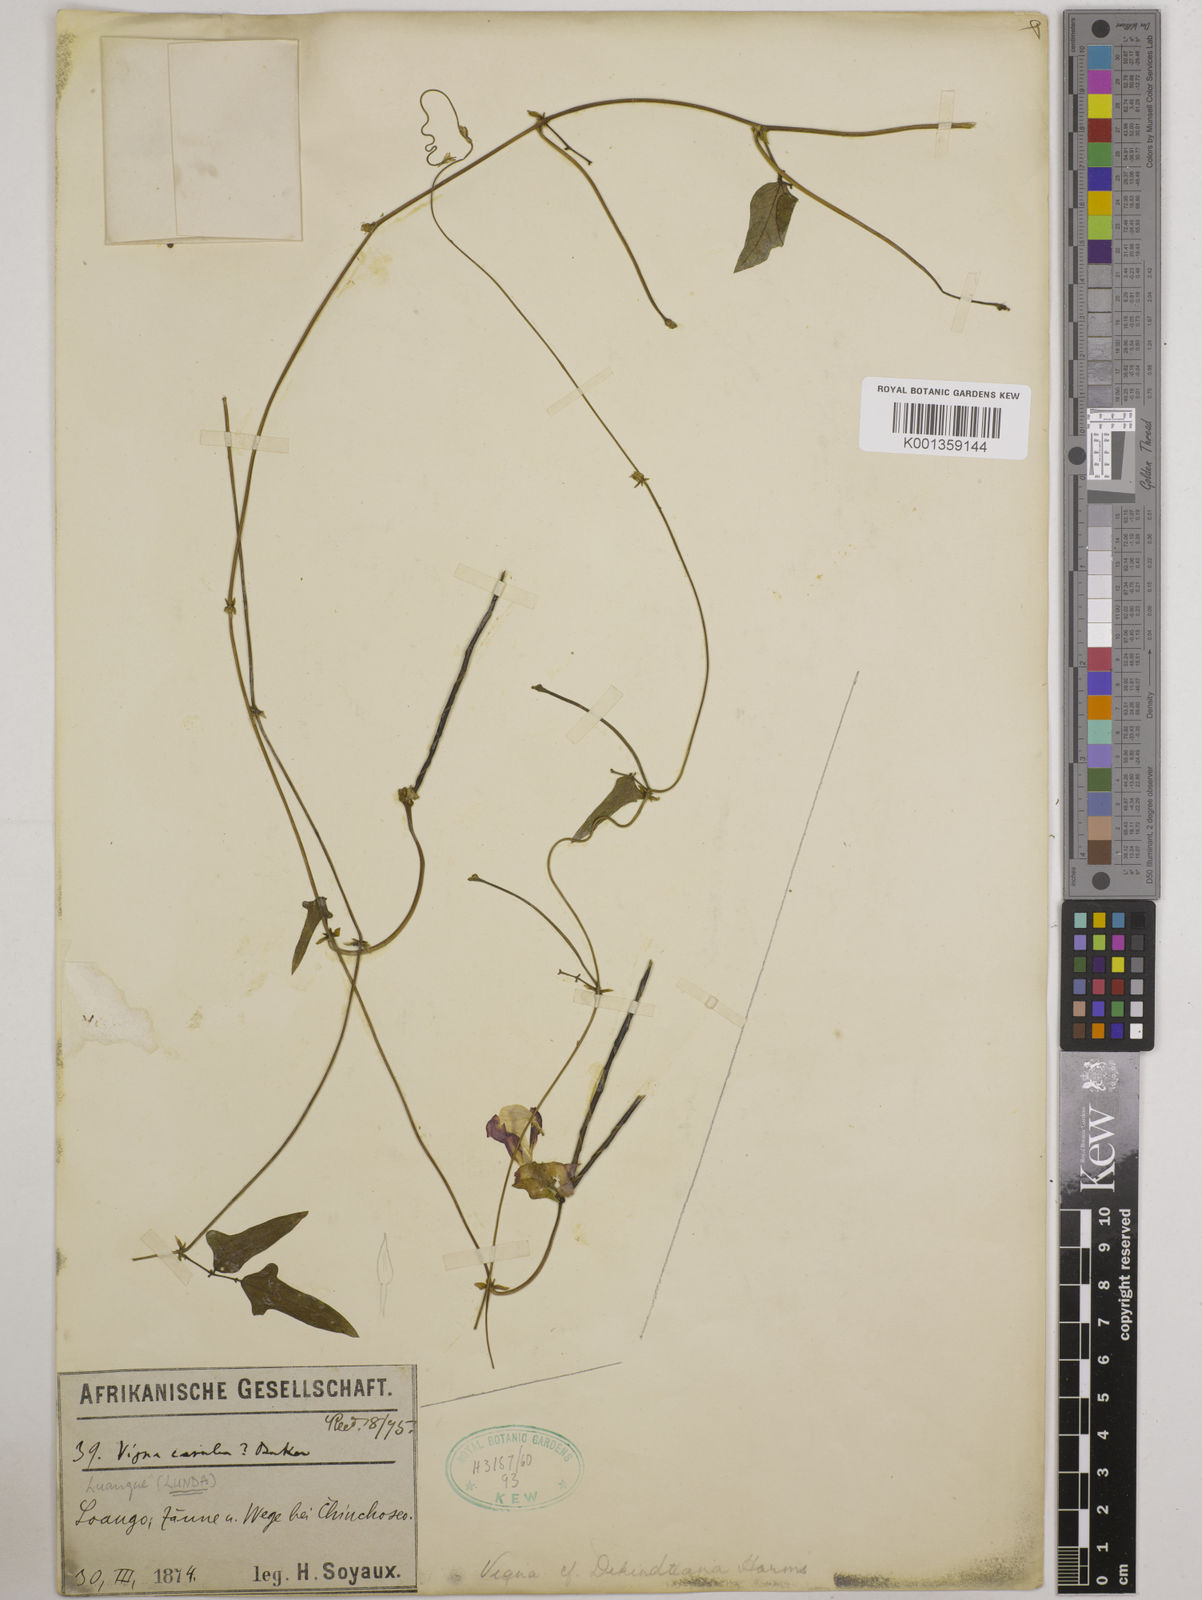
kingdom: Plantae
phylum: Tracheophyta
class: Magnoliopsida
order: Fabales
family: Fabaceae
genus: Vigna
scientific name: Vigna
